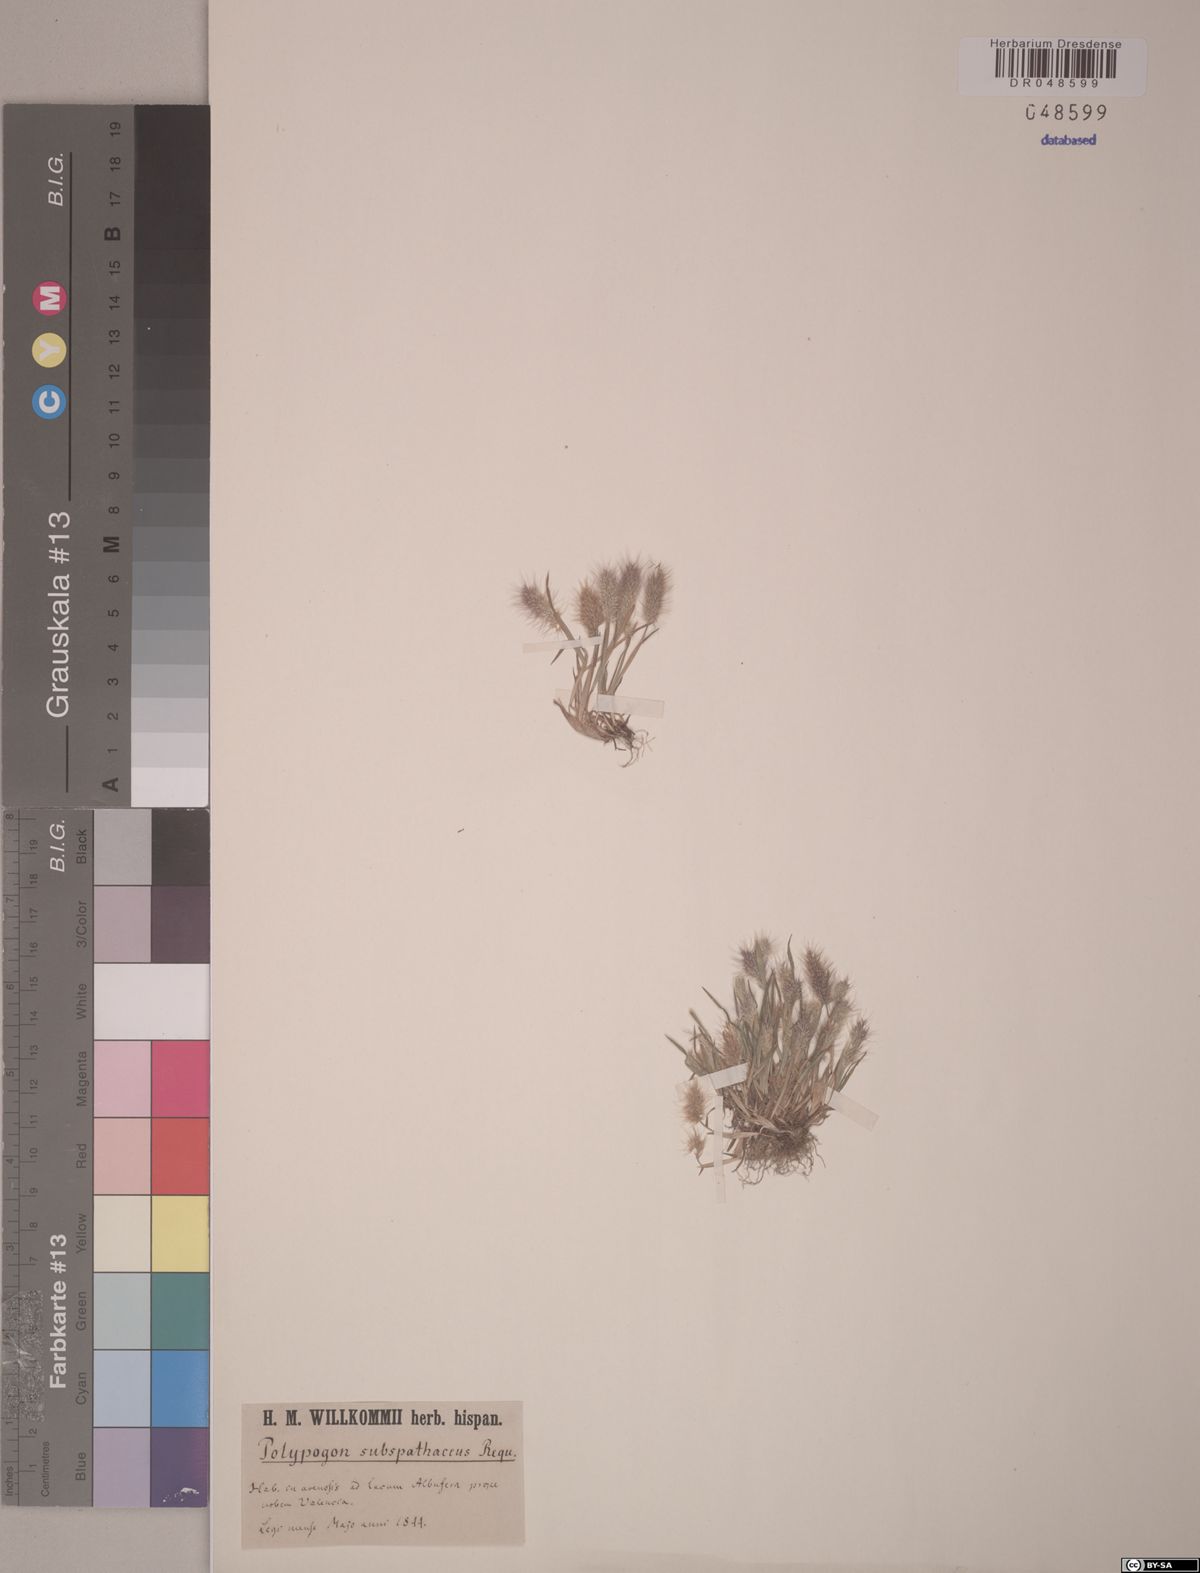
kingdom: Plantae
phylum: Tracheophyta
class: Liliopsida
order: Poales
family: Poaceae
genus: Polypogon
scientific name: Polypogon subspathaceus
